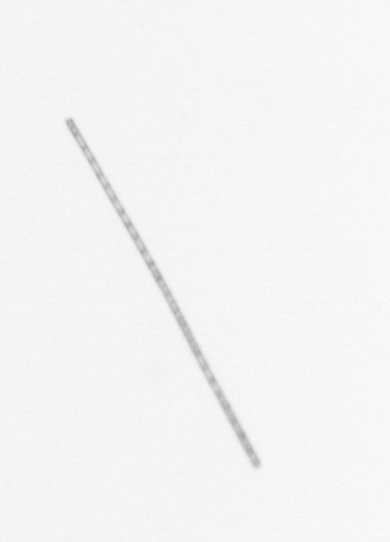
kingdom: Chromista
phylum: Ochrophyta
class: Bacillariophyceae
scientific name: Bacillariophyceae
